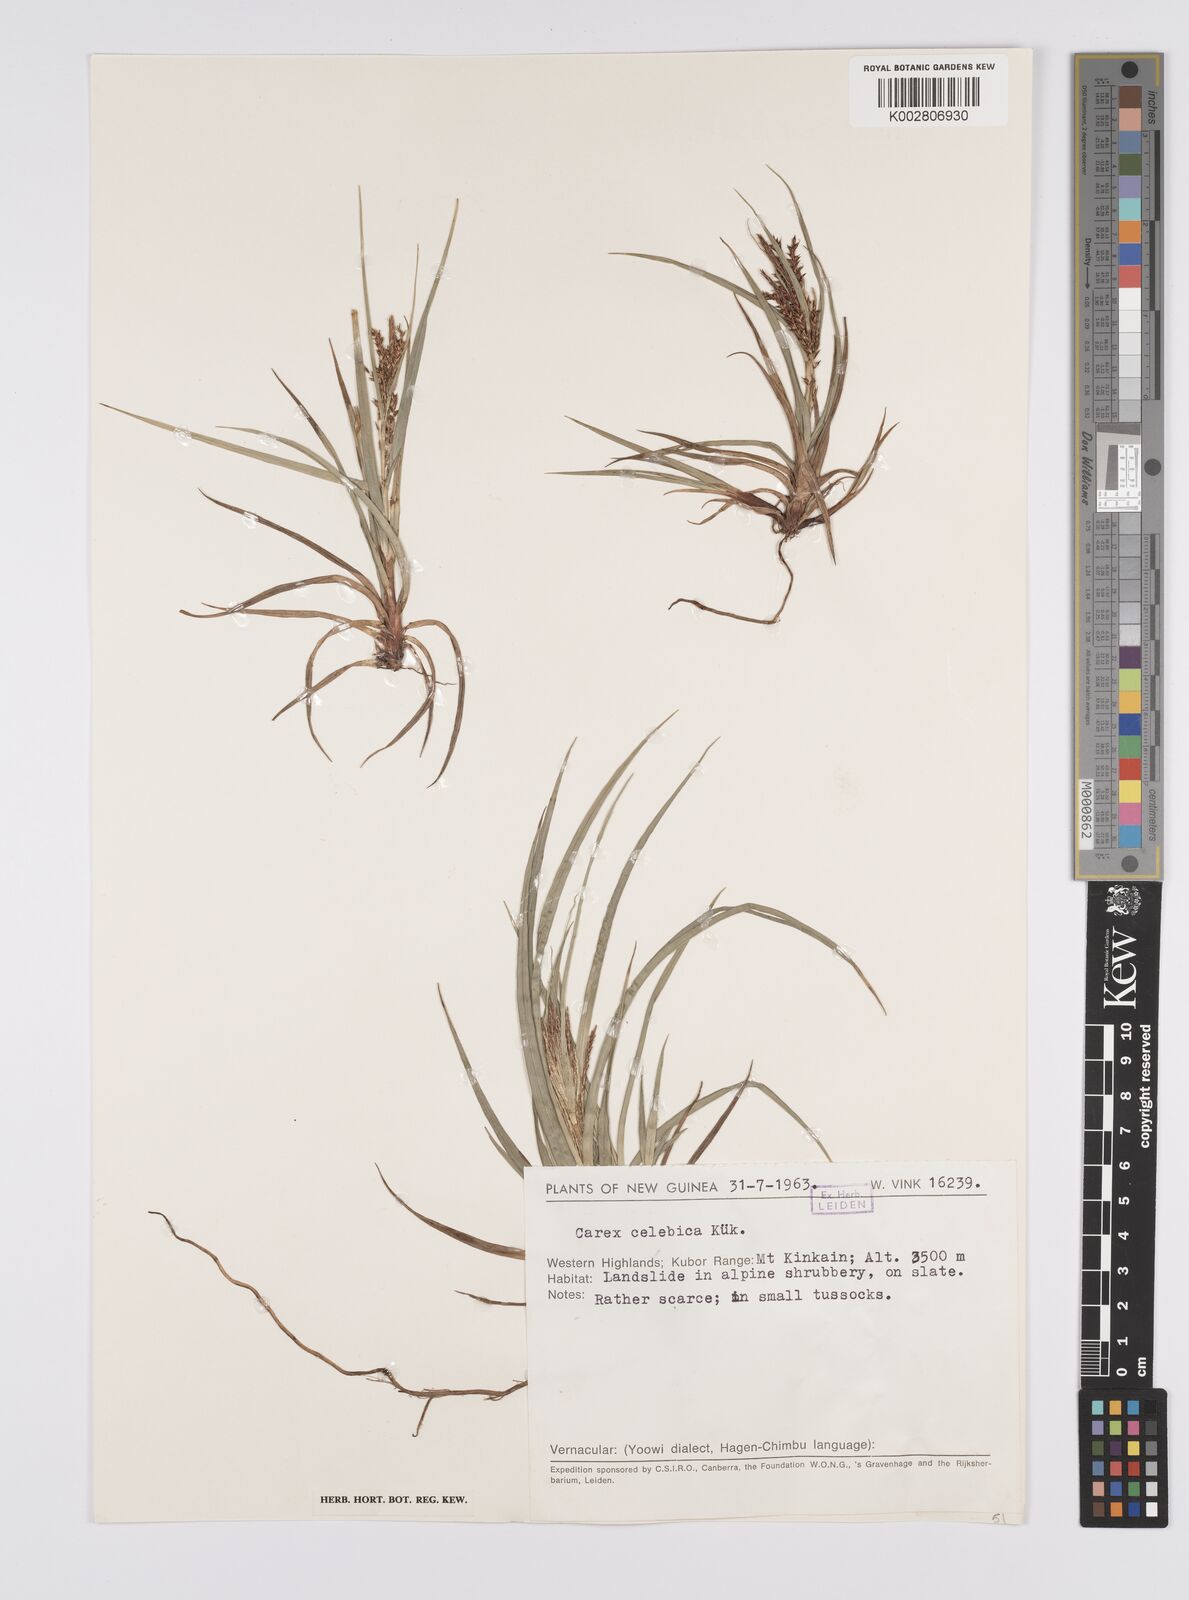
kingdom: Plantae
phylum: Tracheophyta
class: Liliopsida
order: Poales
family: Cyperaceae
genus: Carex
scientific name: Carex celebica
